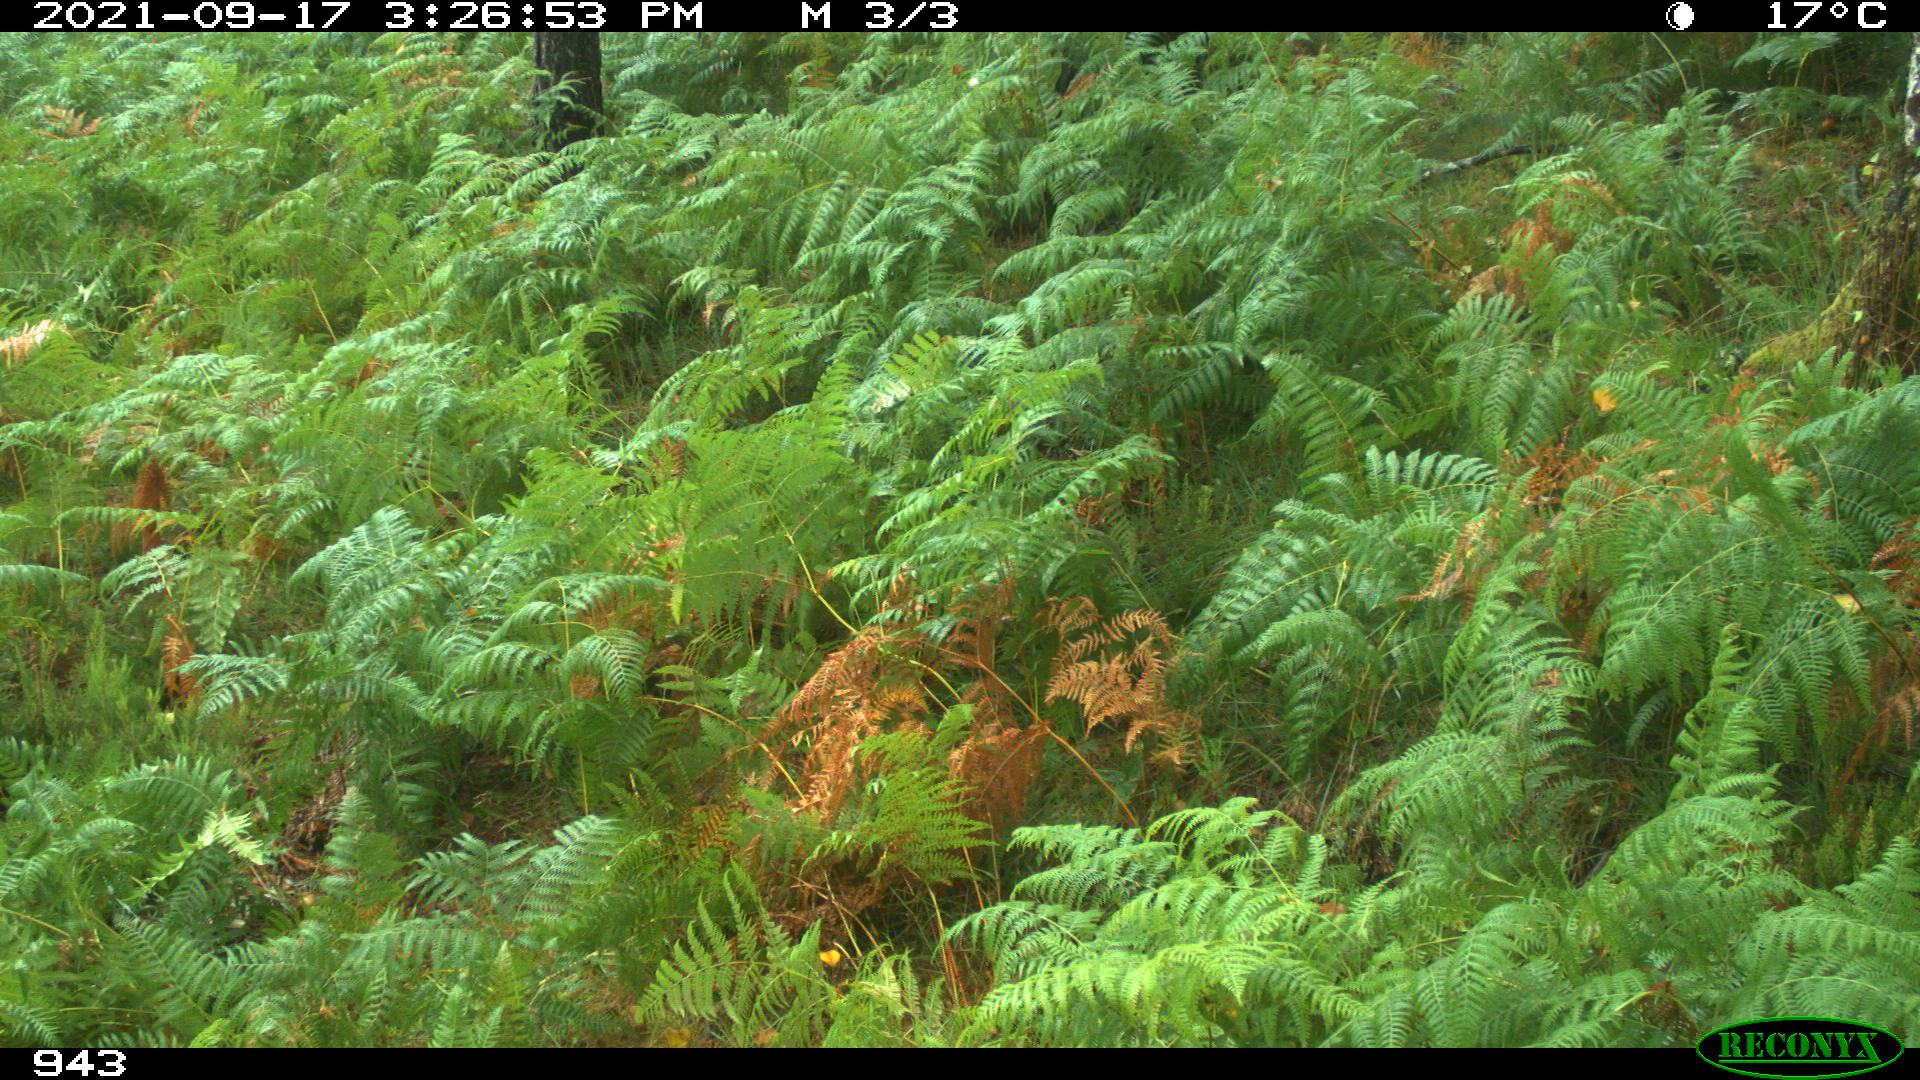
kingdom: Animalia
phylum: Chordata
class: Mammalia
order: Artiodactyla
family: Bovidae
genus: Bos
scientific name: Bos taurus
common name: Domesticated cattle
